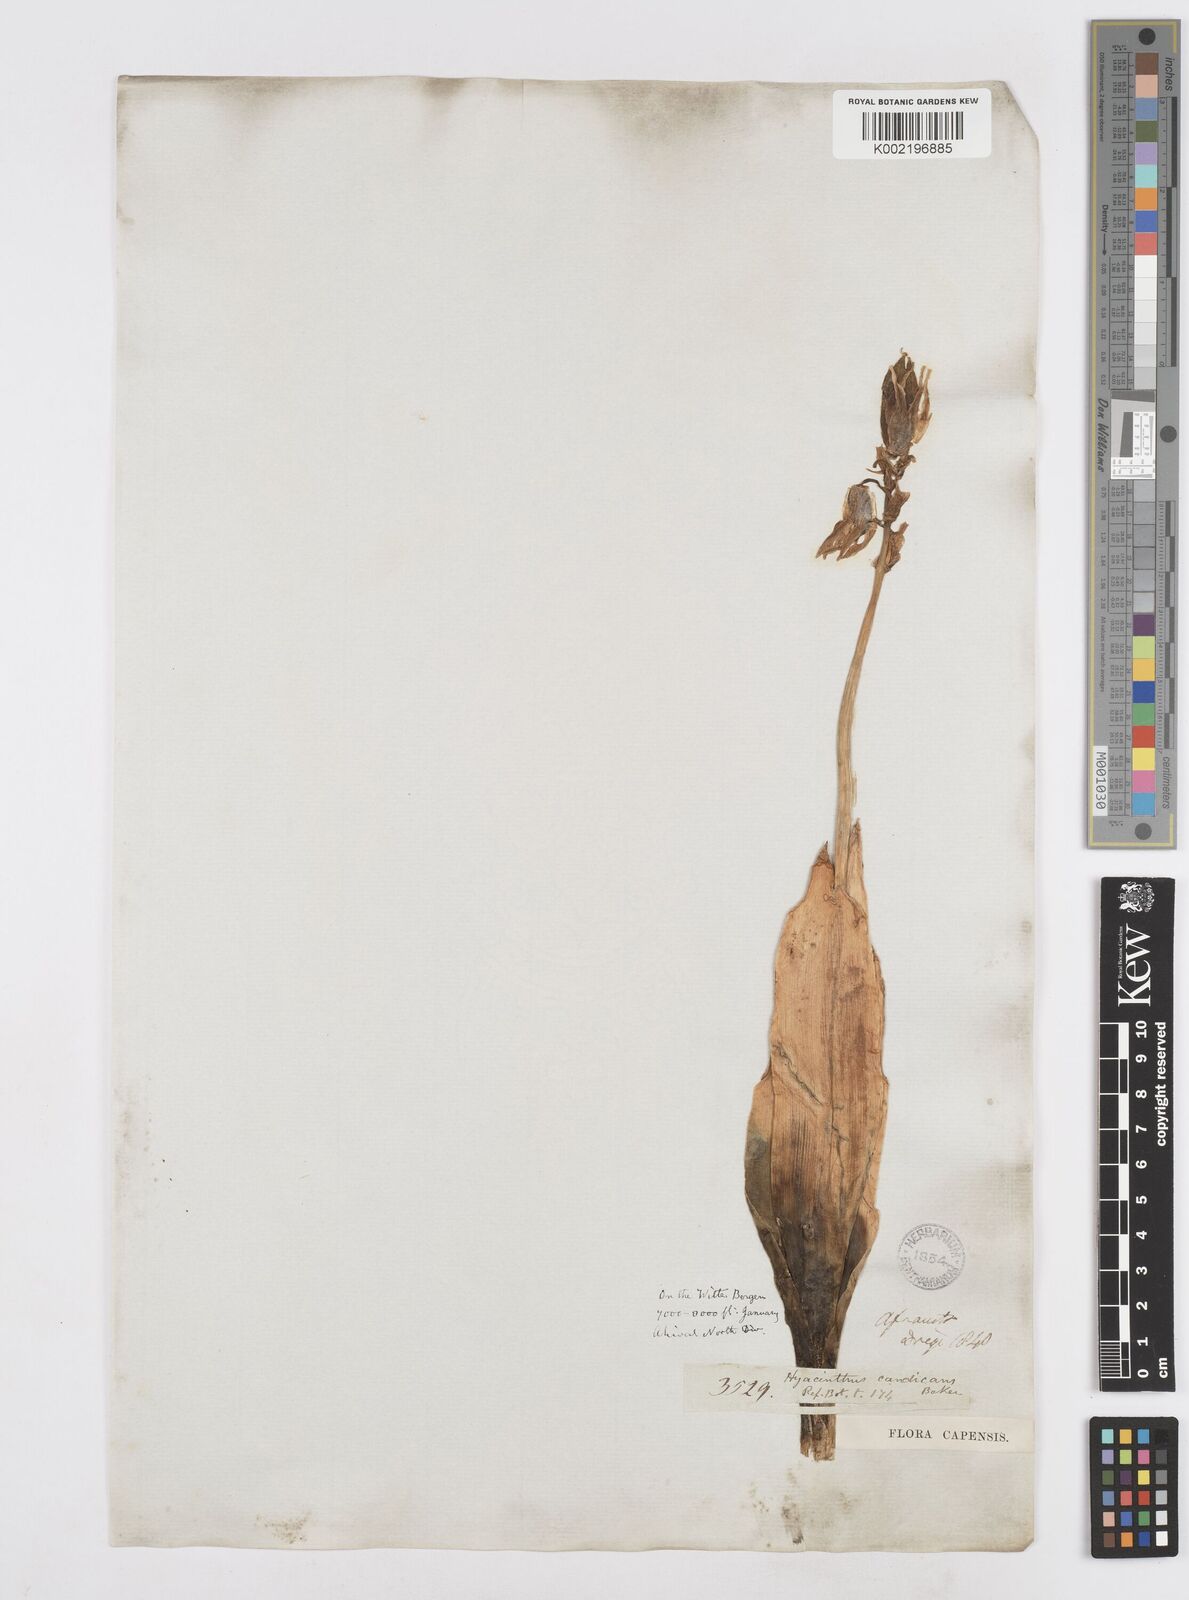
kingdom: Plantae
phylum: Tracheophyta
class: Liliopsida
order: Asparagales
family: Asparagaceae
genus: Ornithogalum
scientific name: Ornithogalum viridiflorum
